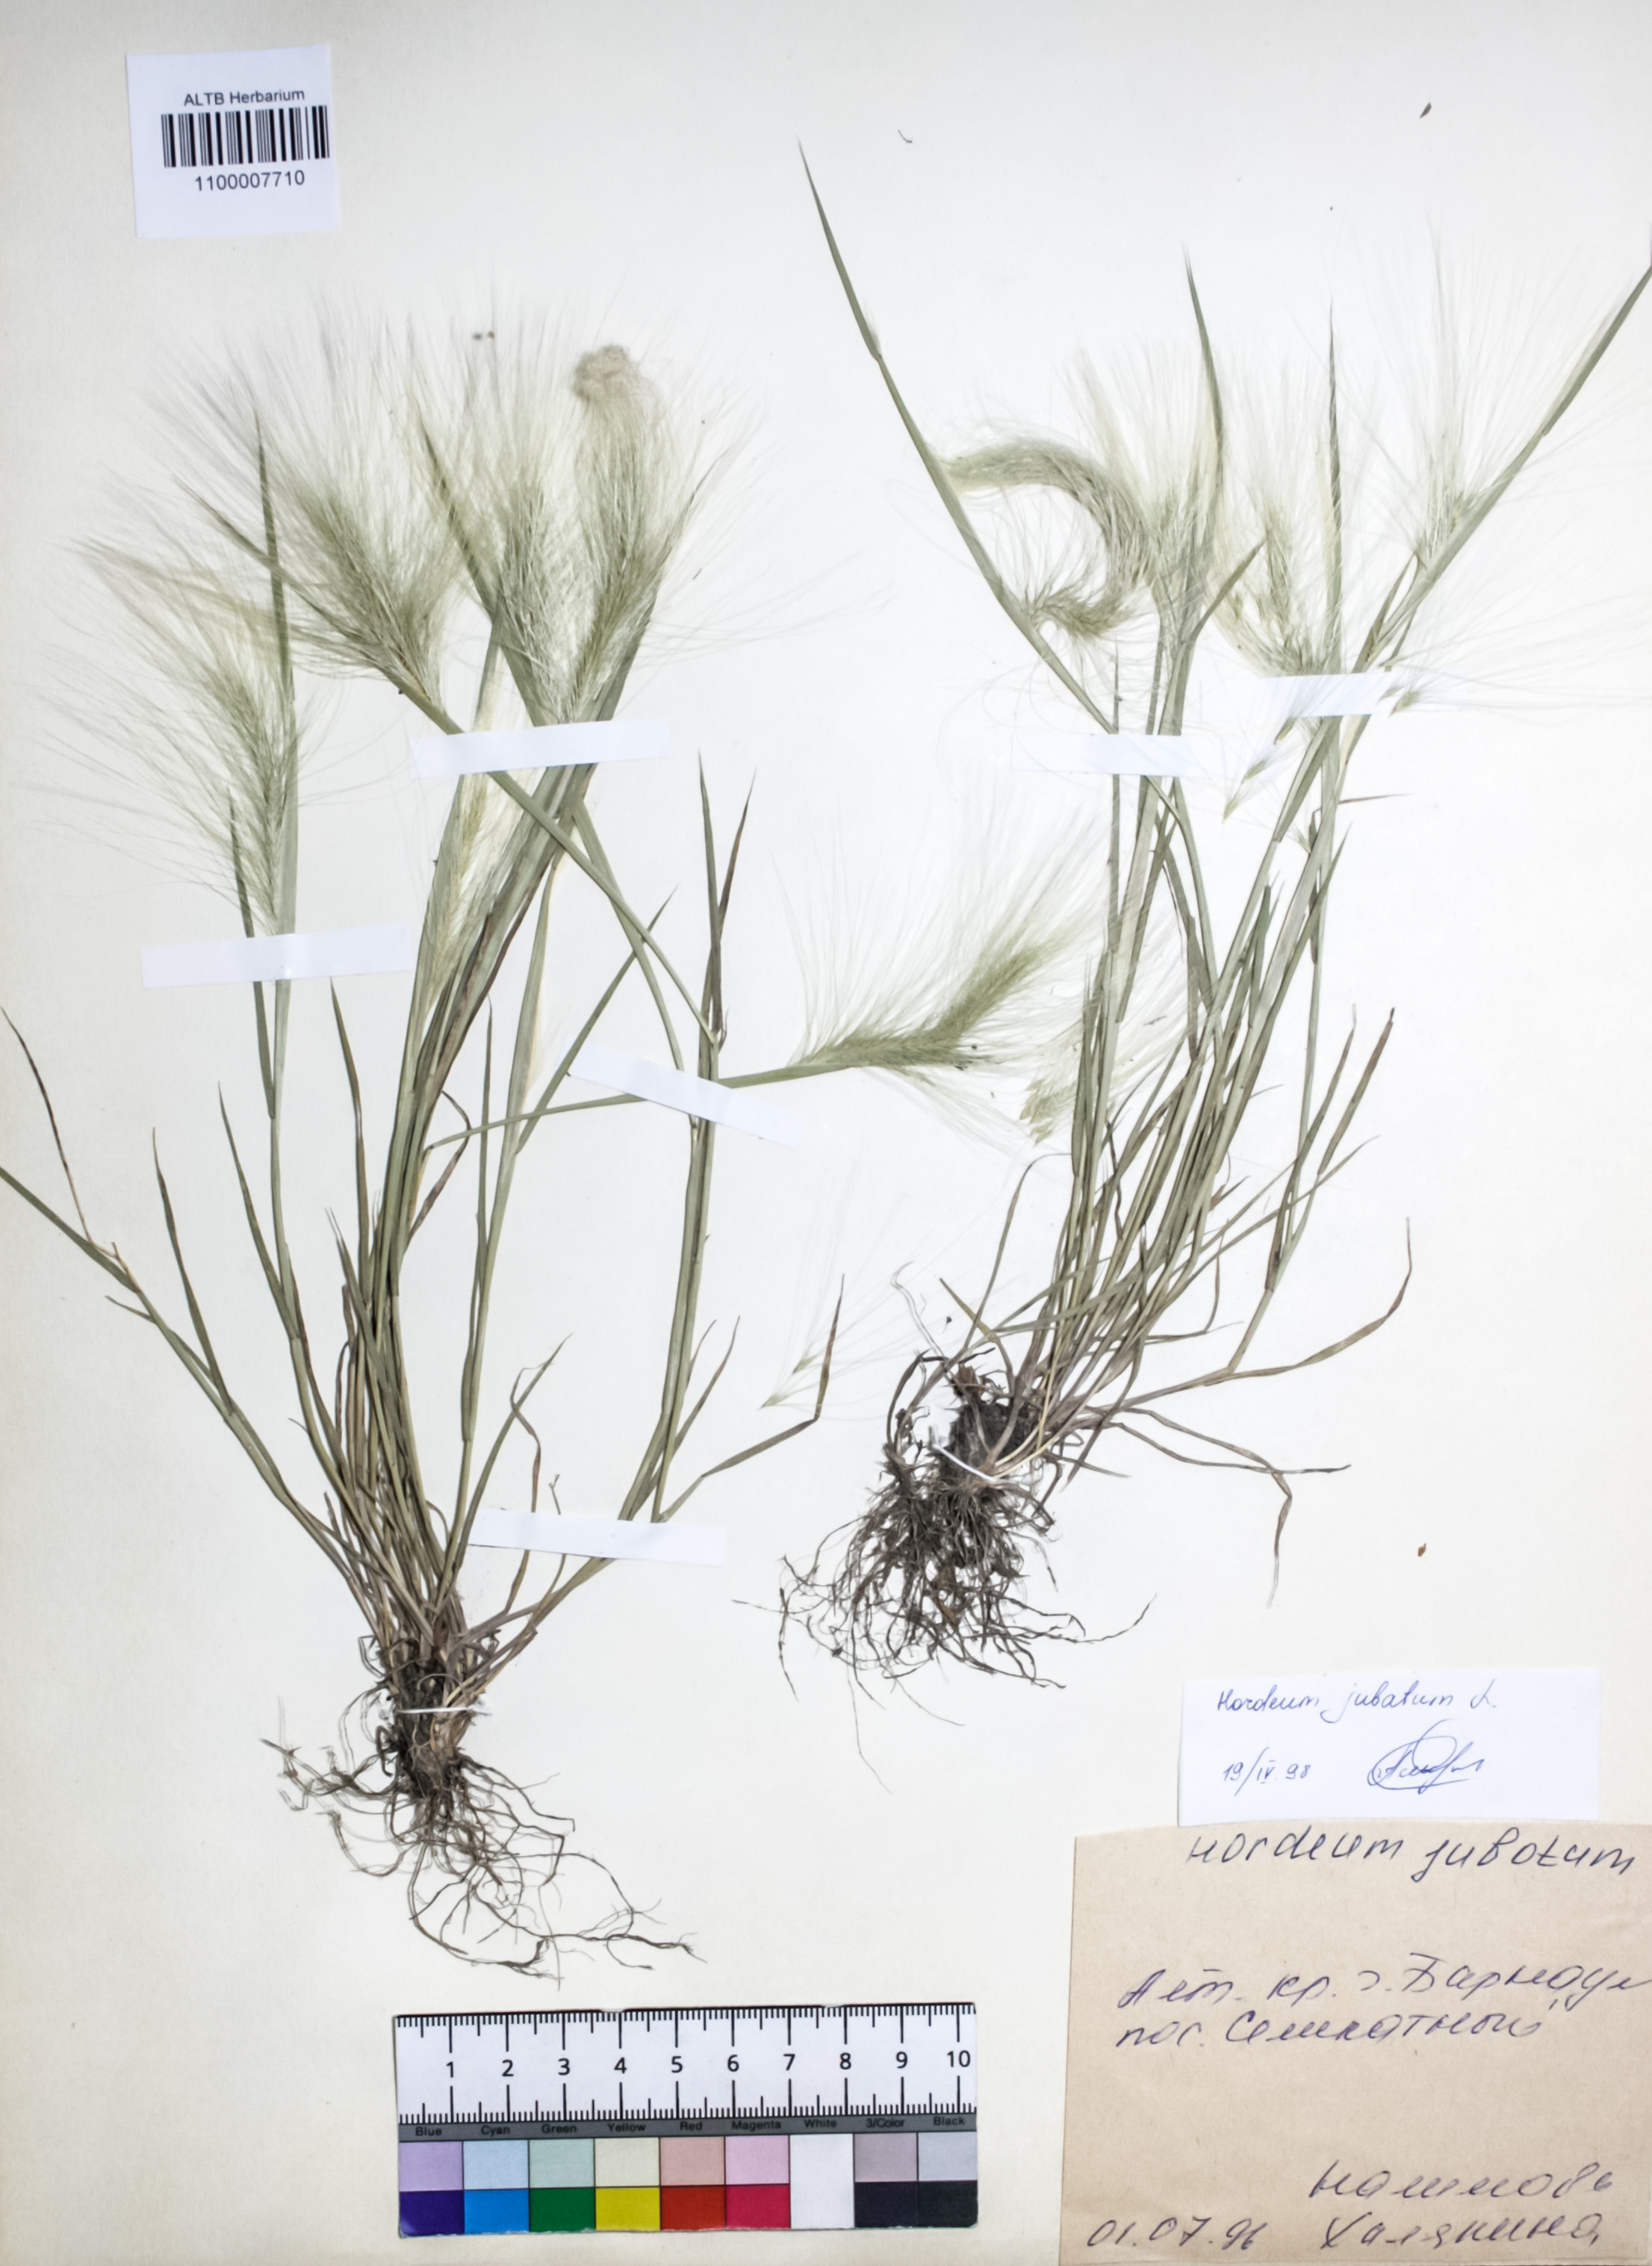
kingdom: Plantae
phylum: Tracheophyta
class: Liliopsida
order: Poales
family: Poaceae
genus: Hordeum
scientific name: Hordeum jubatum
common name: Foxtail barley
